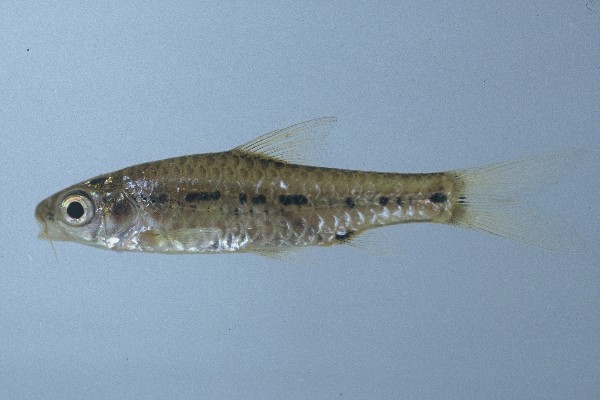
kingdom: Animalia
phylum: Chordata
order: Cypriniformes
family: Cyprinidae
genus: Enteromius
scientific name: Enteromius lineomaculatus
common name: Line-spotted barb
